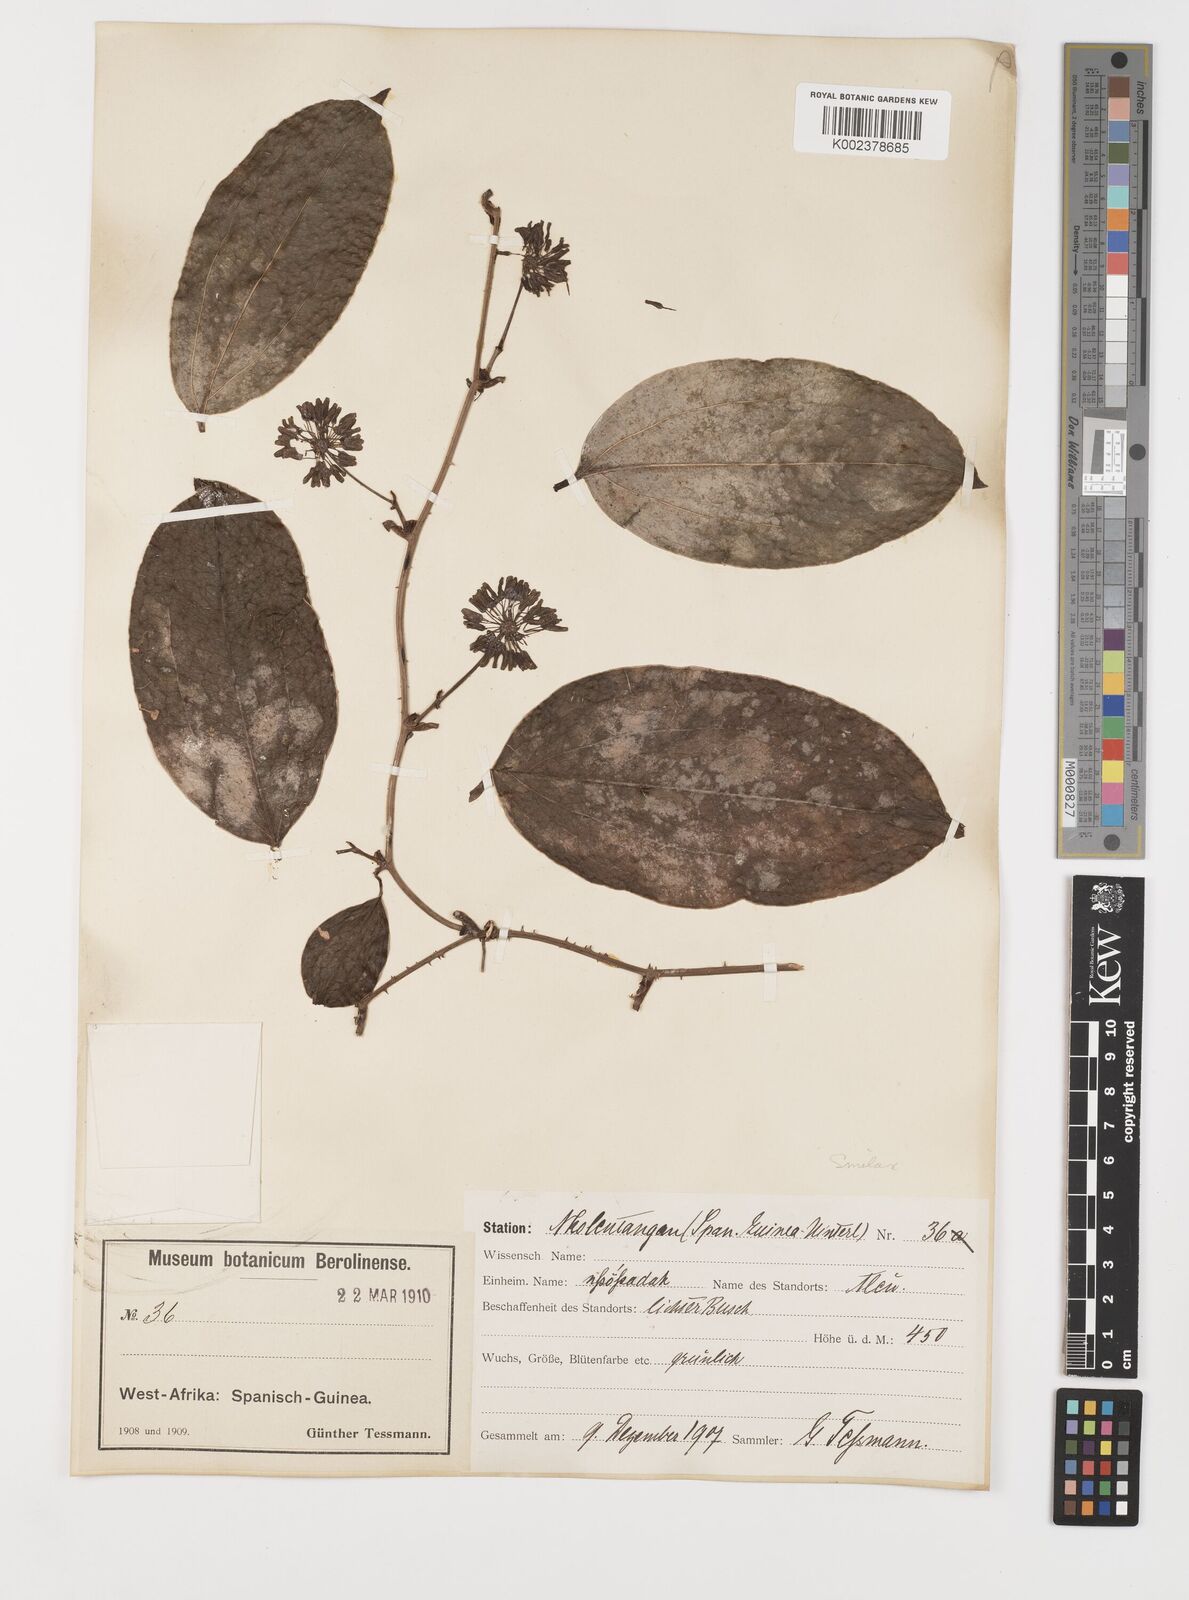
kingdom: Plantae
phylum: Tracheophyta
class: Liliopsida
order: Liliales
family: Smilacaceae
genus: Smilax
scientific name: Smilax anceps
